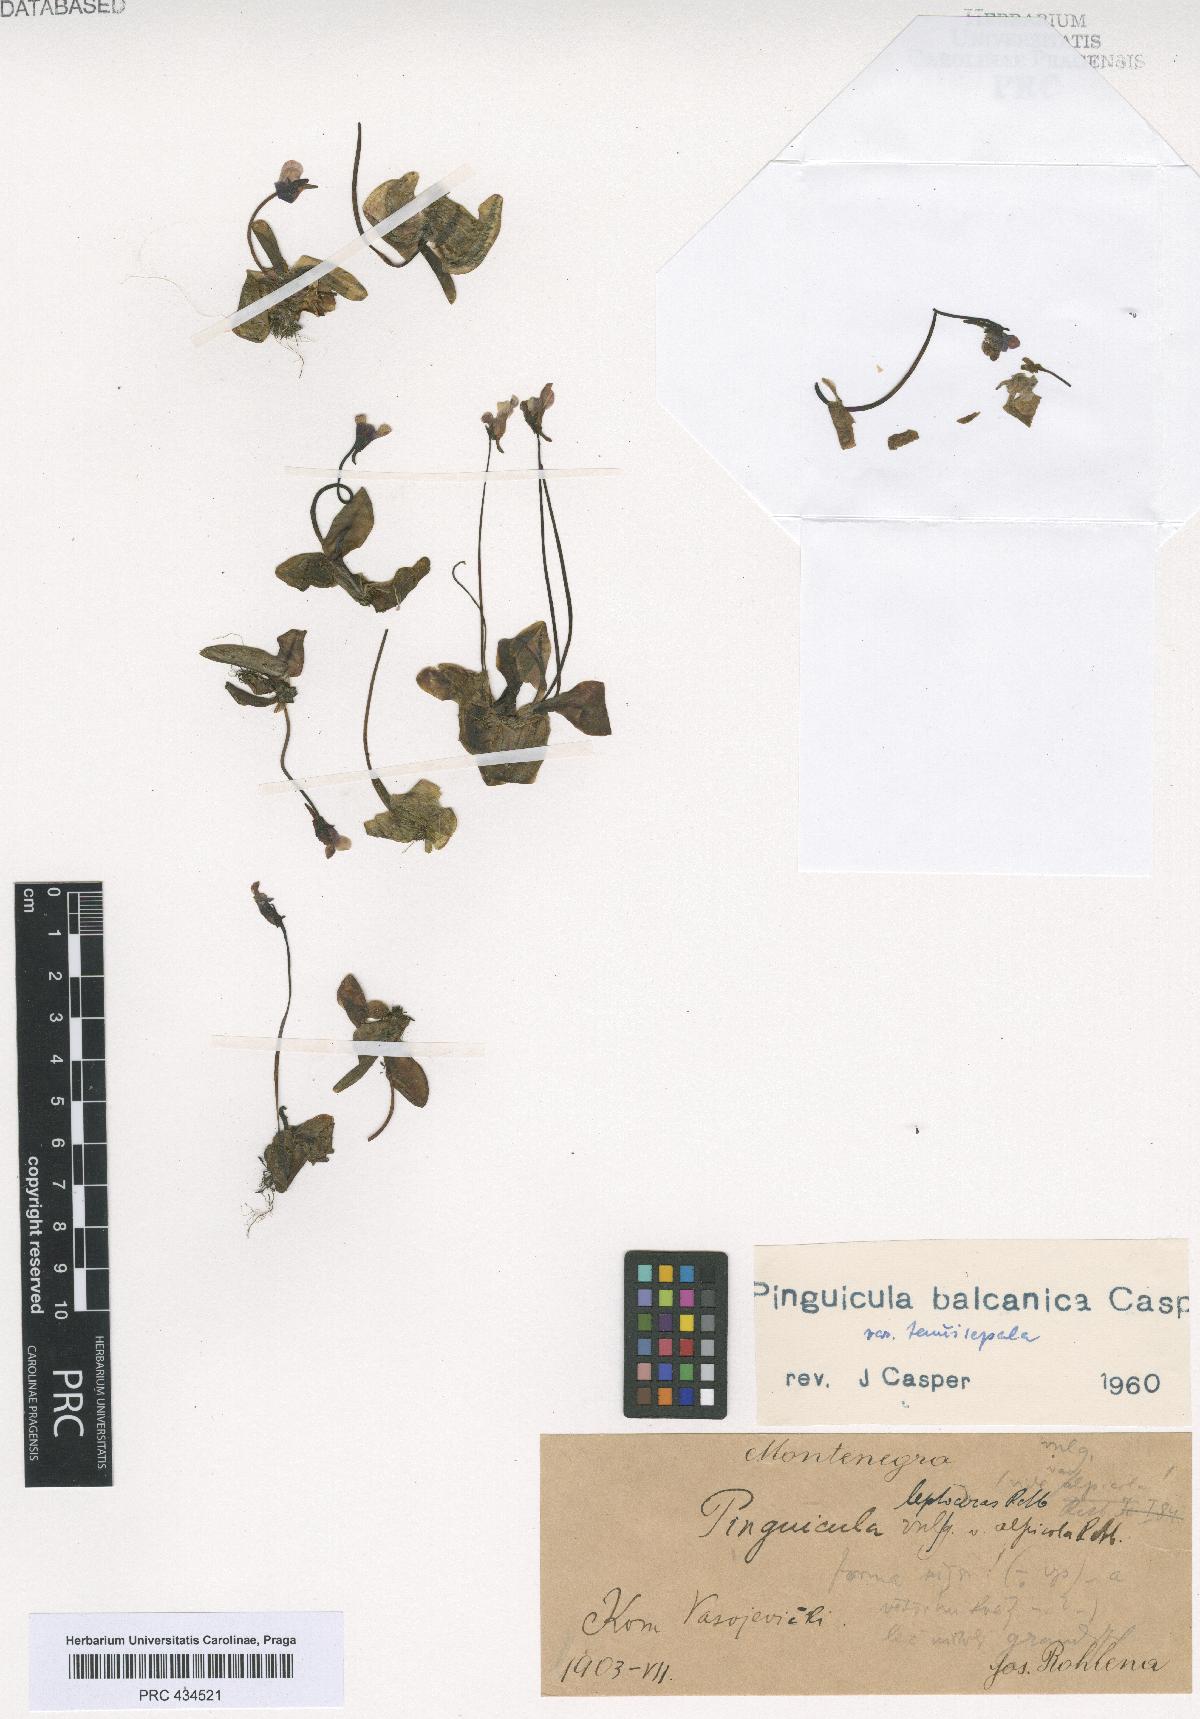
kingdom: Plantae
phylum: Tracheophyta
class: Magnoliopsida
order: Lamiales
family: Lentibulariaceae
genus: Pinguicula
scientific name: Pinguicula balcanica
